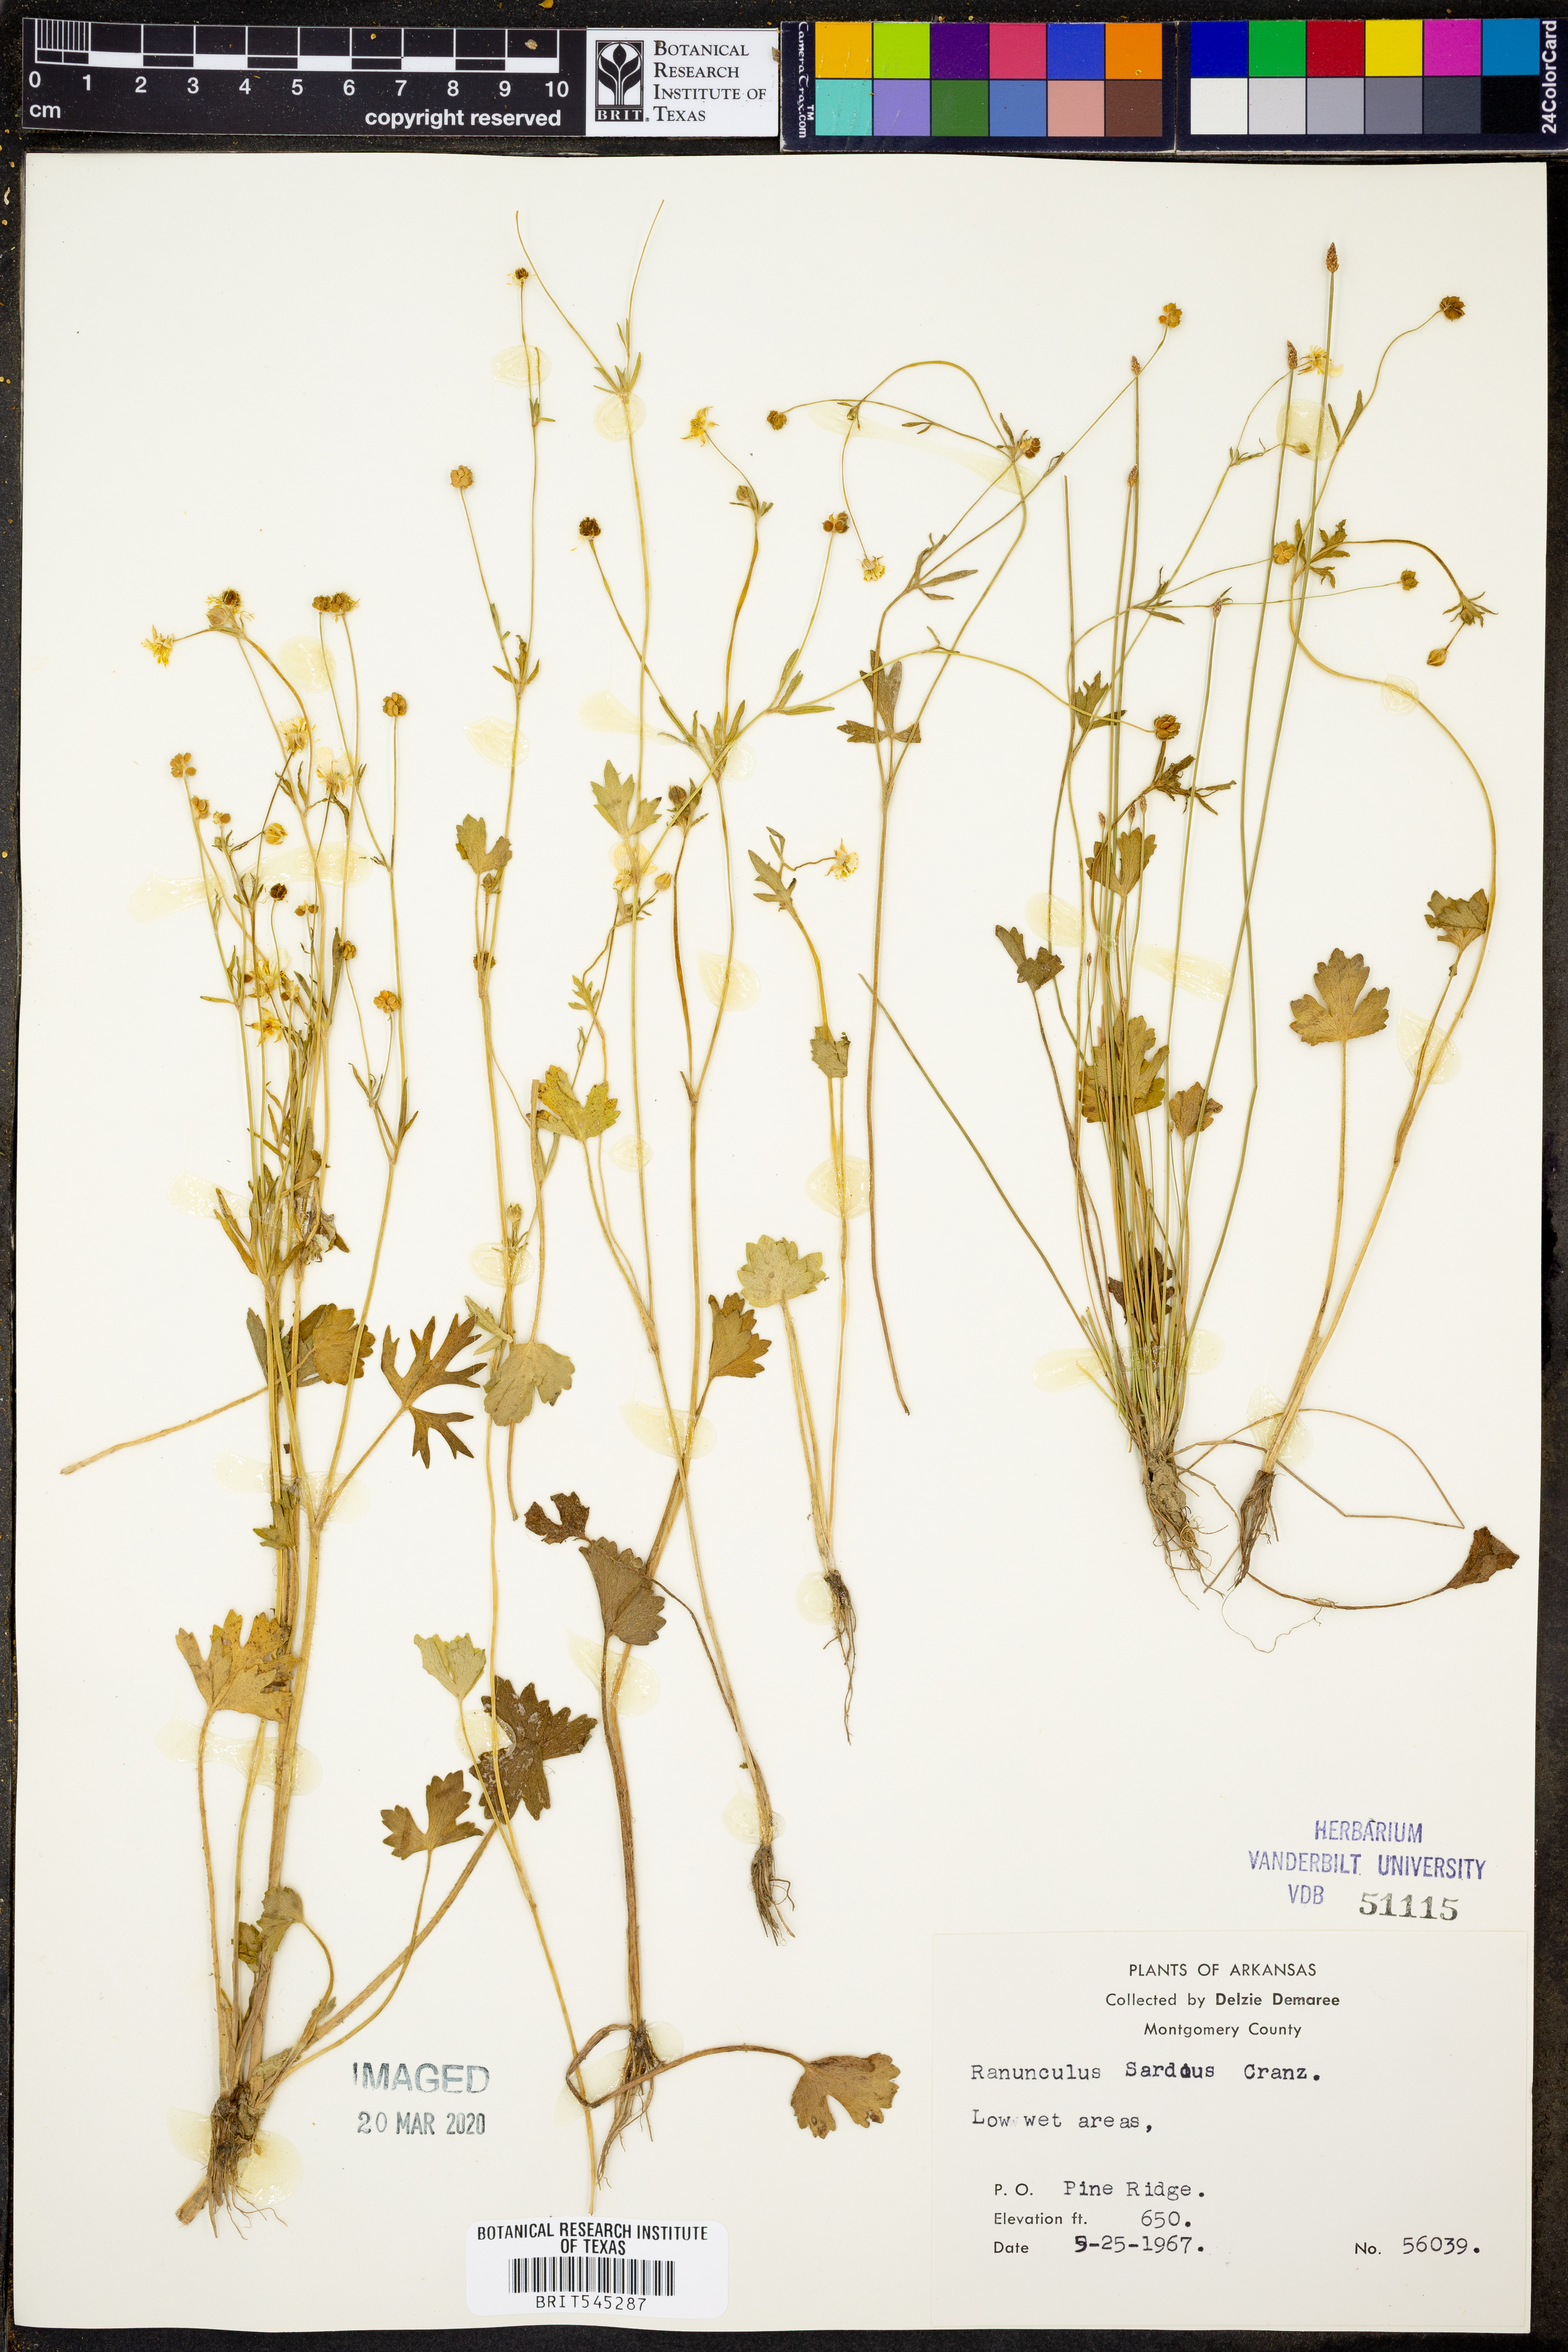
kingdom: Plantae
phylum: Tracheophyta
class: Magnoliopsida
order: Ranunculales
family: Ranunculaceae
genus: Ranunculus
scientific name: Ranunculus sardous
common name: Hairy buttercup
